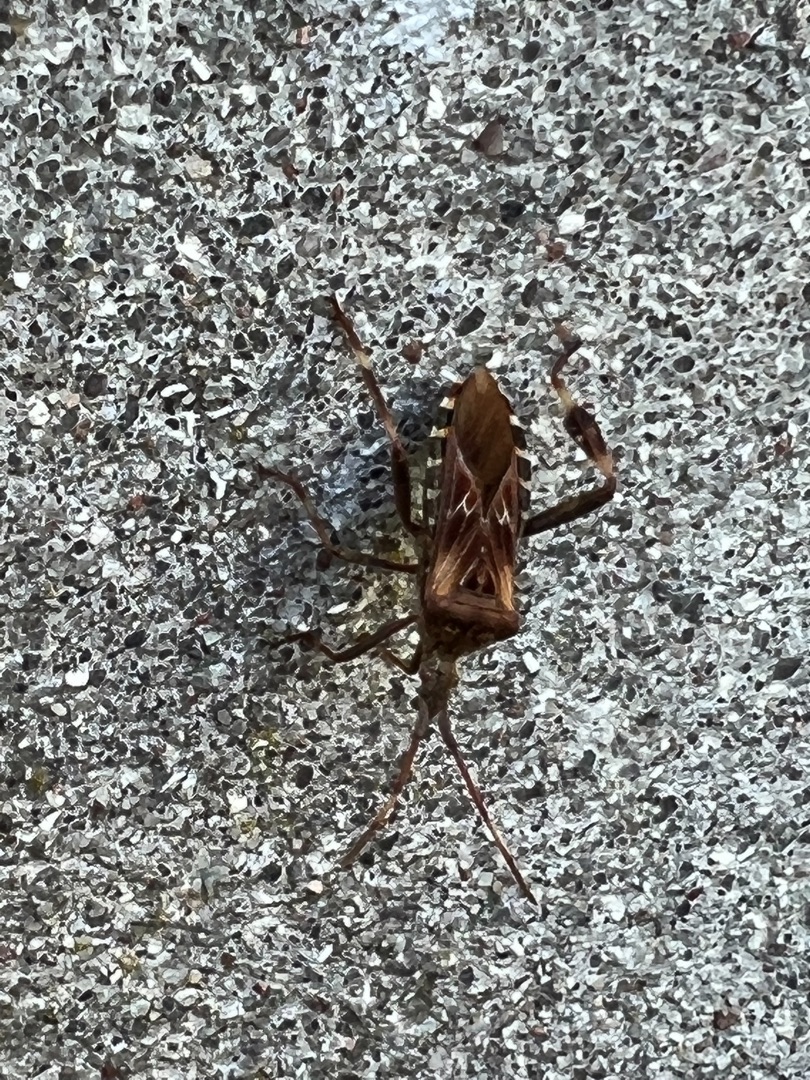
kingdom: Animalia
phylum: Arthropoda
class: Insecta
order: Hemiptera
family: Coreidae
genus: Leptoglossus
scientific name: Leptoglossus occidentalis
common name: Amerikansk fyrretæge
